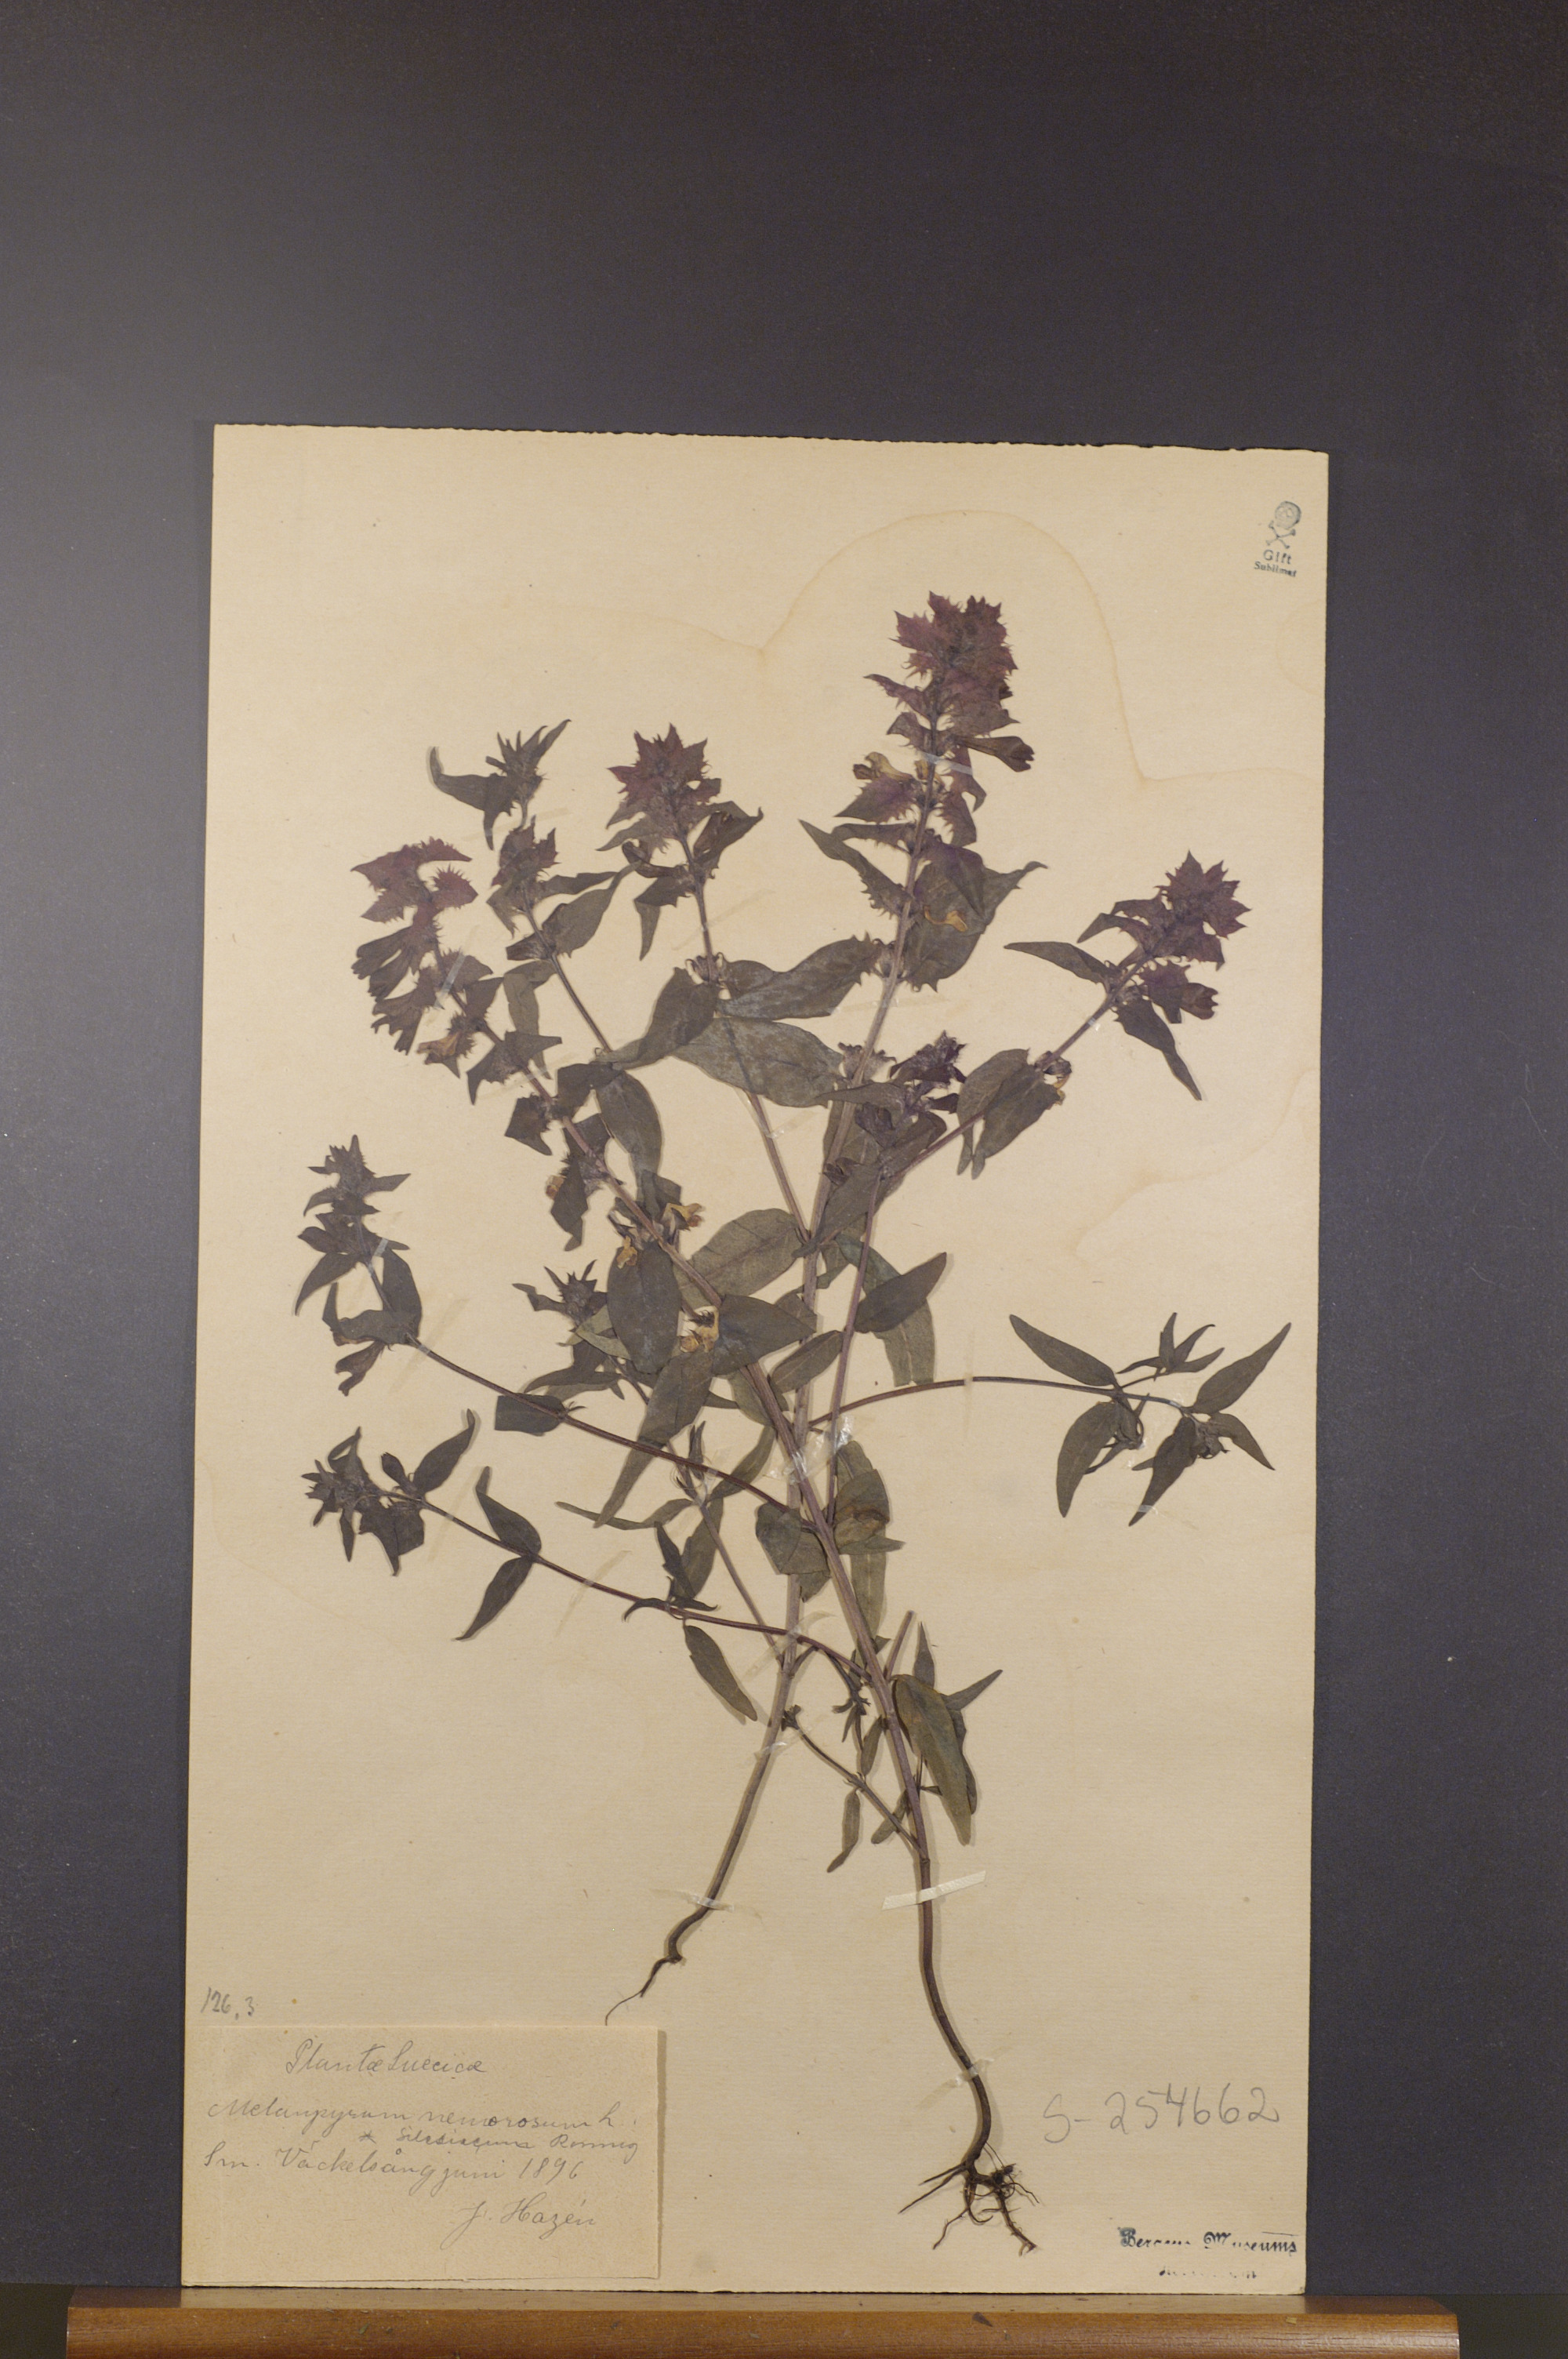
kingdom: Plantae
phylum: Tracheophyta
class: Magnoliopsida
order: Lamiales
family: Orobanchaceae
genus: Melampyrum
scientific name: Melampyrum nemorosum
